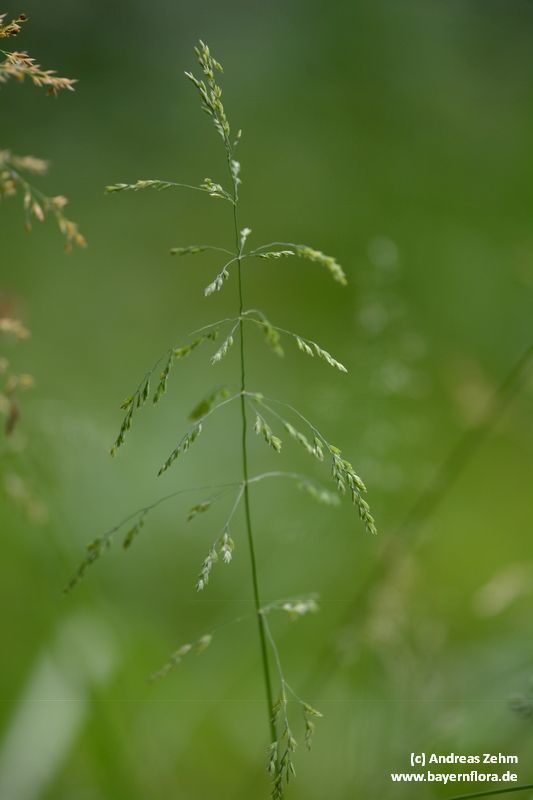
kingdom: Plantae
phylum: Tracheophyta
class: Liliopsida
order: Poales
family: Poaceae
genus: Poa
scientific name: Poa trivialis
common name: Rough bluegrass
